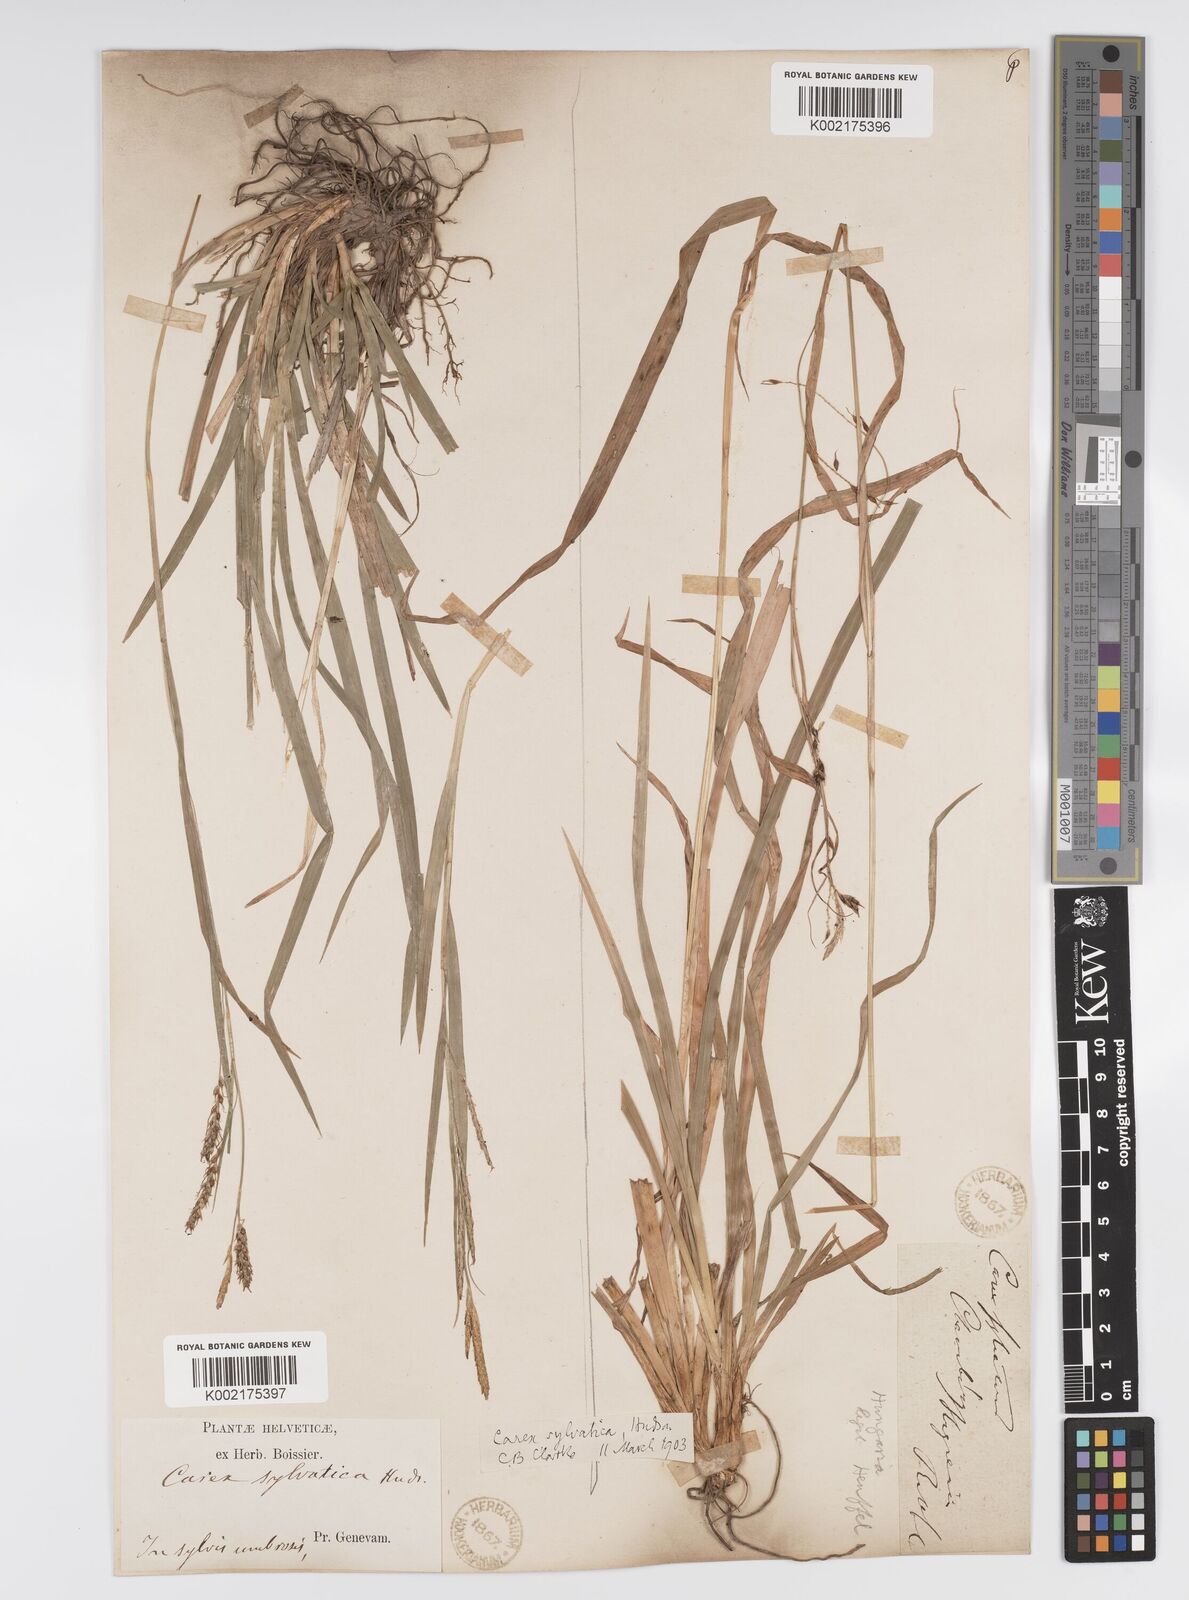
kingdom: Plantae
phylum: Tracheophyta
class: Liliopsida
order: Poales
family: Cyperaceae
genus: Carex
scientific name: Carex sylvatica
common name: Wood-sedge
